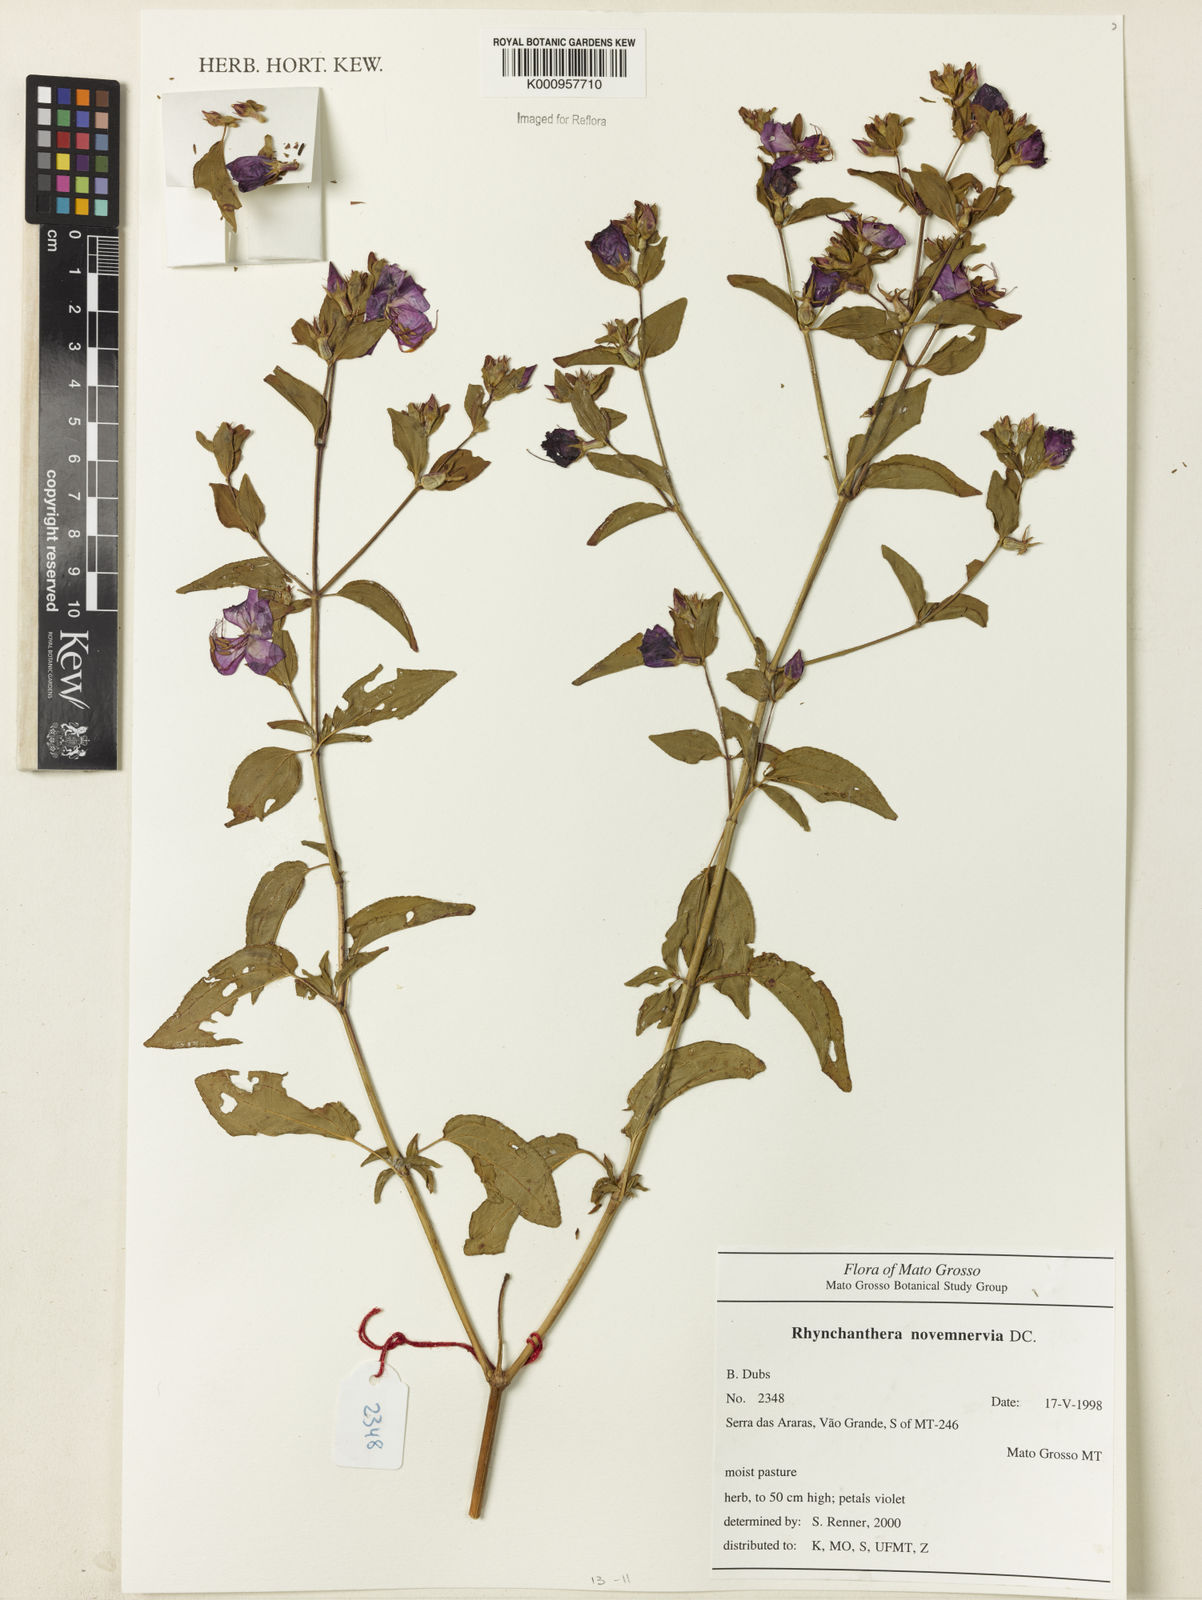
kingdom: Plantae
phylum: Tracheophyta
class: Magnoliopsida
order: Myrtales
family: Melastomataceae
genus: Rhynchanthera
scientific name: Rhynchanthera novemnervia
